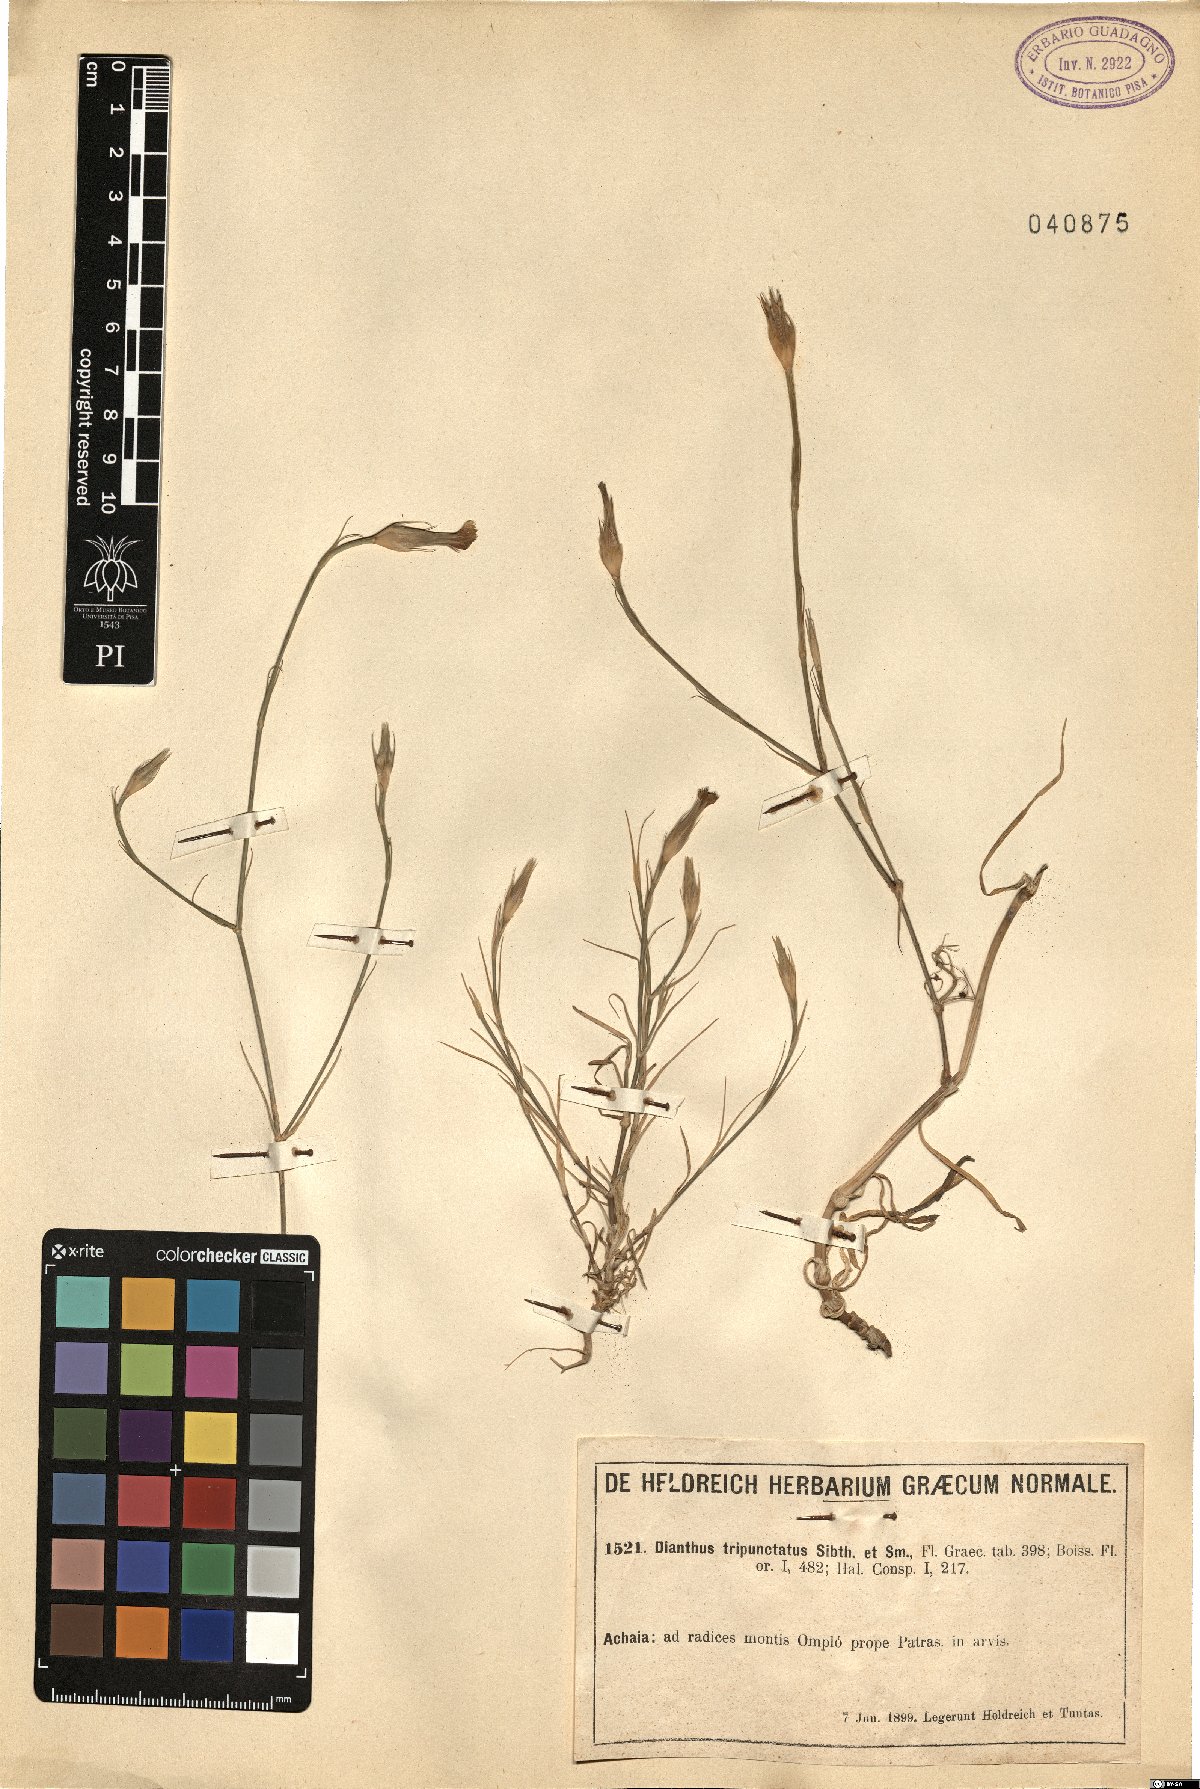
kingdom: Plantae
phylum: Tracheophyta
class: Magnoliopsida
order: Caryophyllales
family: Caryophyllaceae
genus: Dianthus
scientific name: Dianthus tripunctatus
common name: Three-spotted pink
